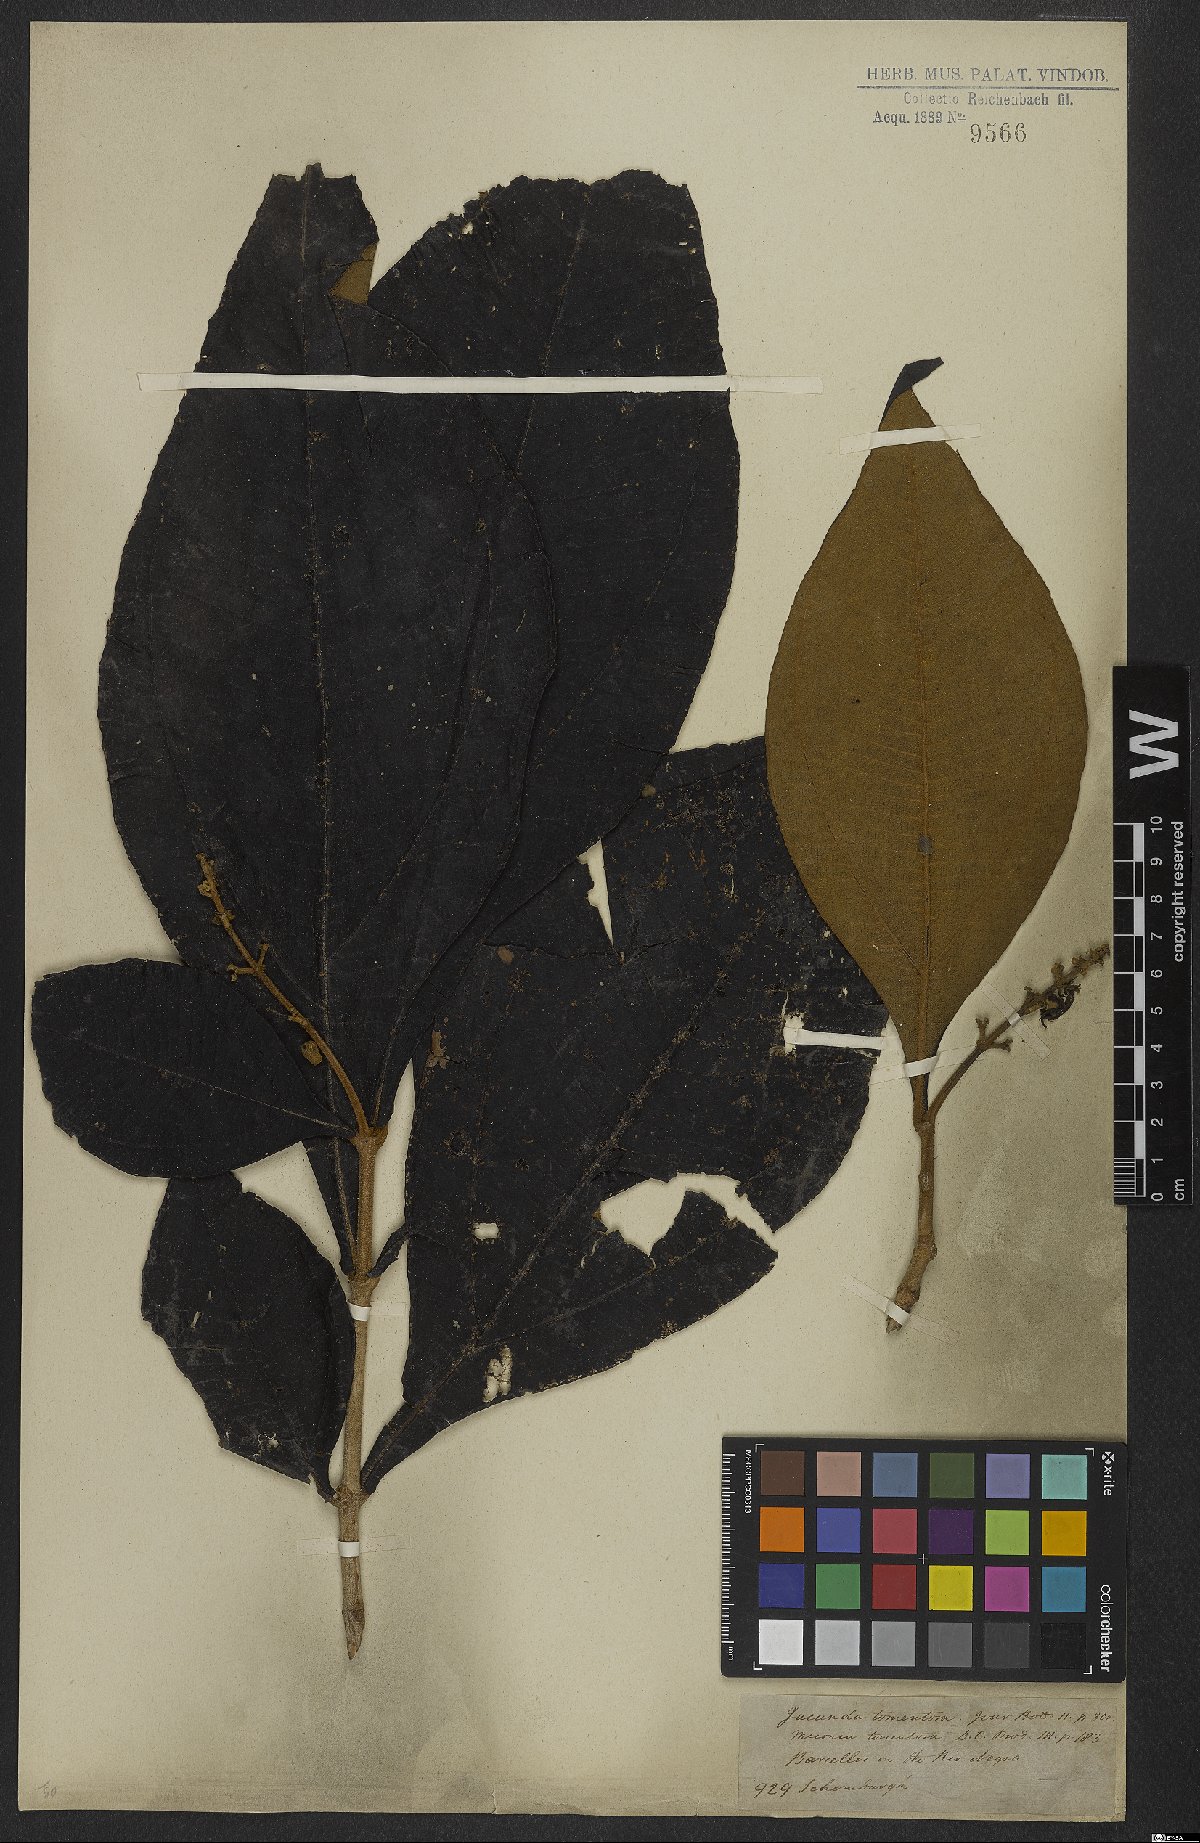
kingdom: Plantae
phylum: Tracheophyta
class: Magnoliopsida
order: Myrtales
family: Melastomataceae
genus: Miconia
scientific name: Miconia tomentosa
